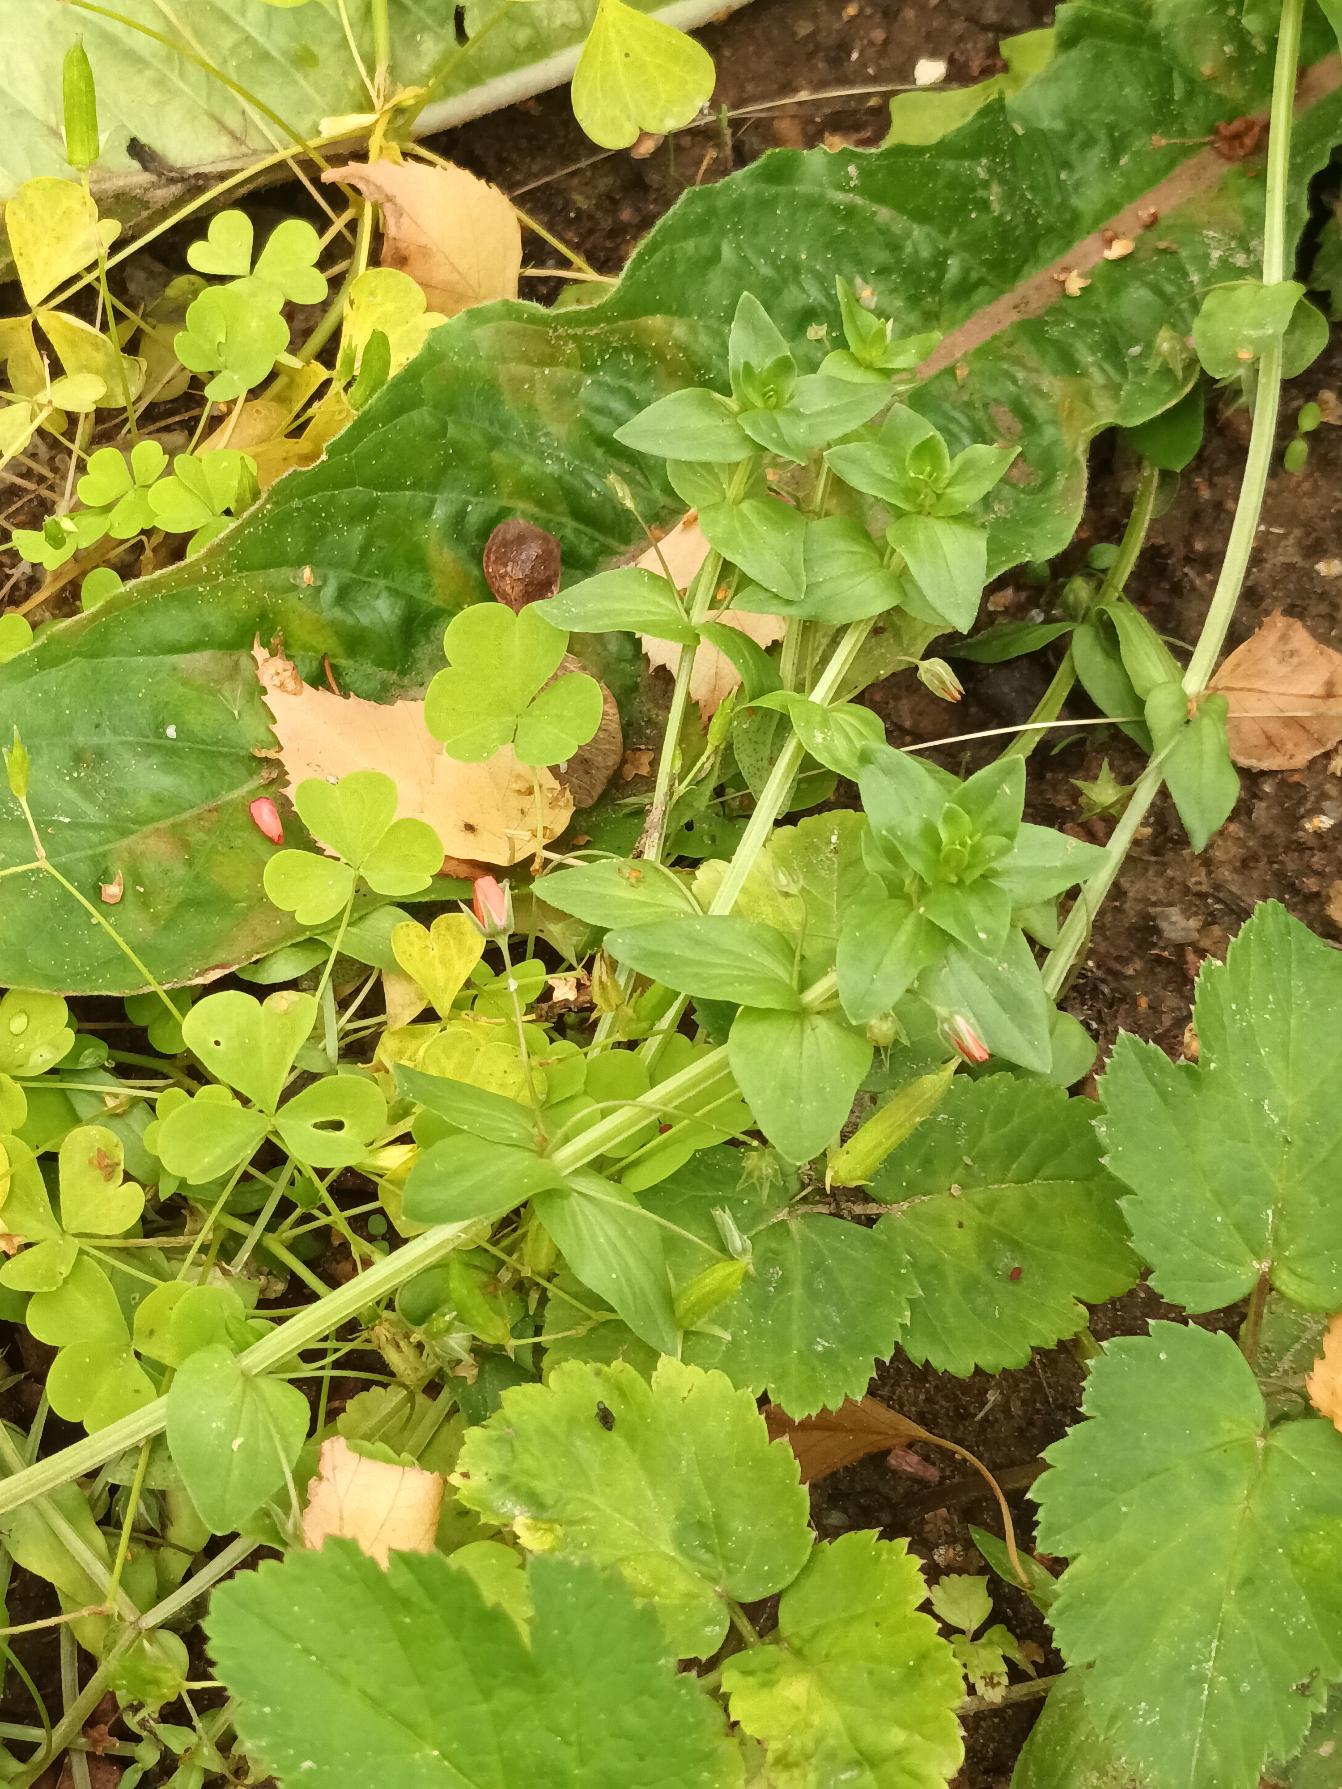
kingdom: Plantae
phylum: Tracheophyta
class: Magnoliopsida
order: Ericales
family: Primulaceae
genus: Lysimachia
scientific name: Lysimachia arvensis
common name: Rød arve
